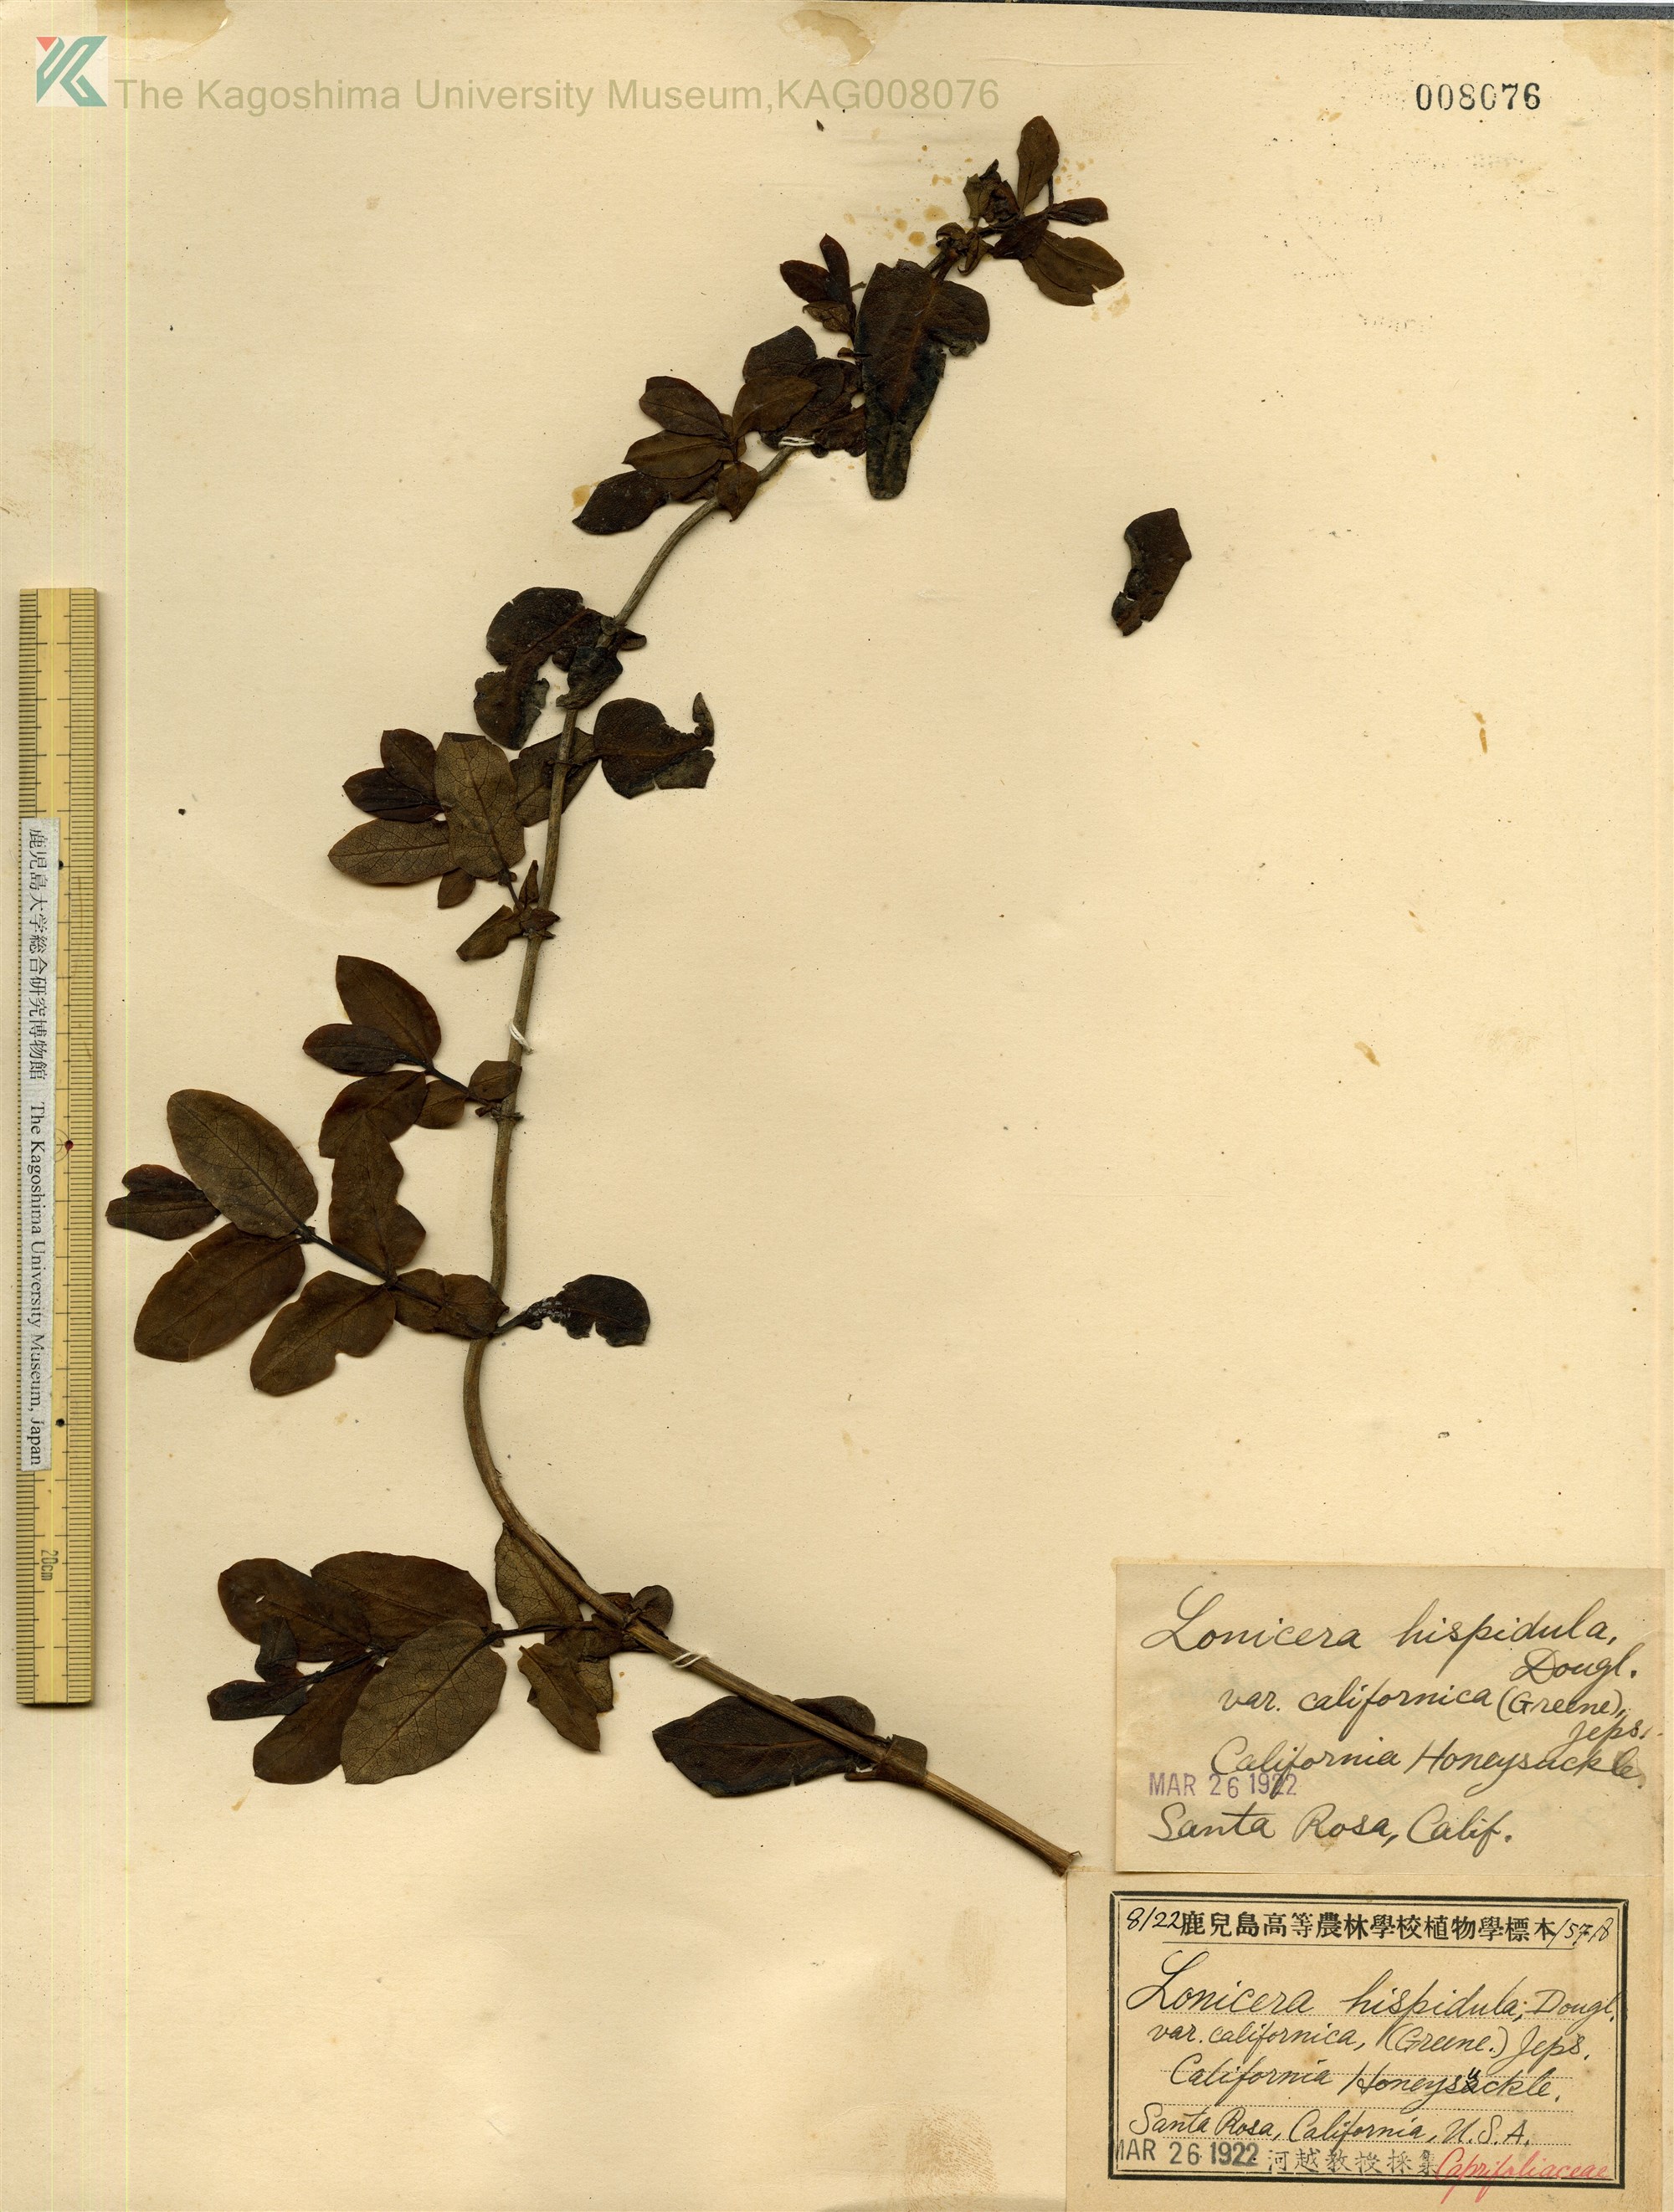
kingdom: Plantae
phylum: Tracheophyta
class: Magnoliopsida
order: Dipsacales
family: Caprifoliaceae
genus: Lonicera
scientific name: Lonicera hispidula
